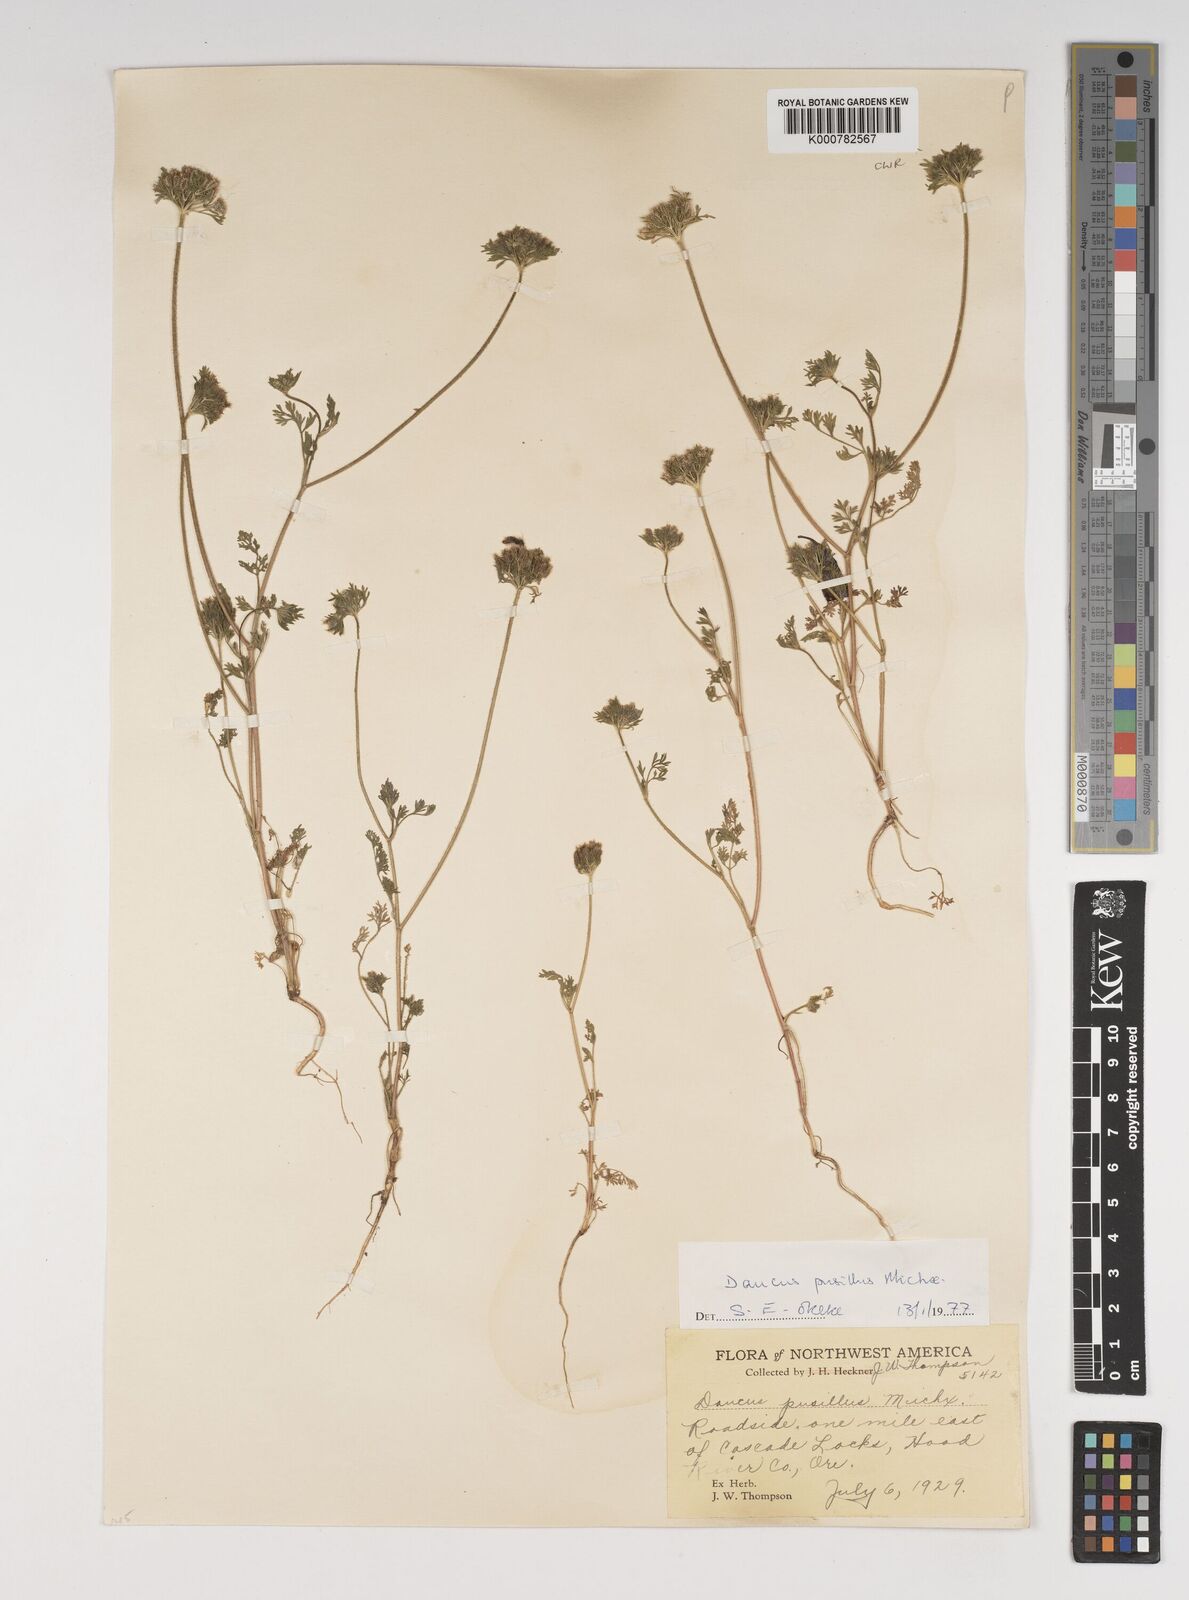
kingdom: Plantae
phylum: Tracheophyta
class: Magnoliopsida
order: Apiales
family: Apiaceae
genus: Daucus
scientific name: Daucus syrticus
